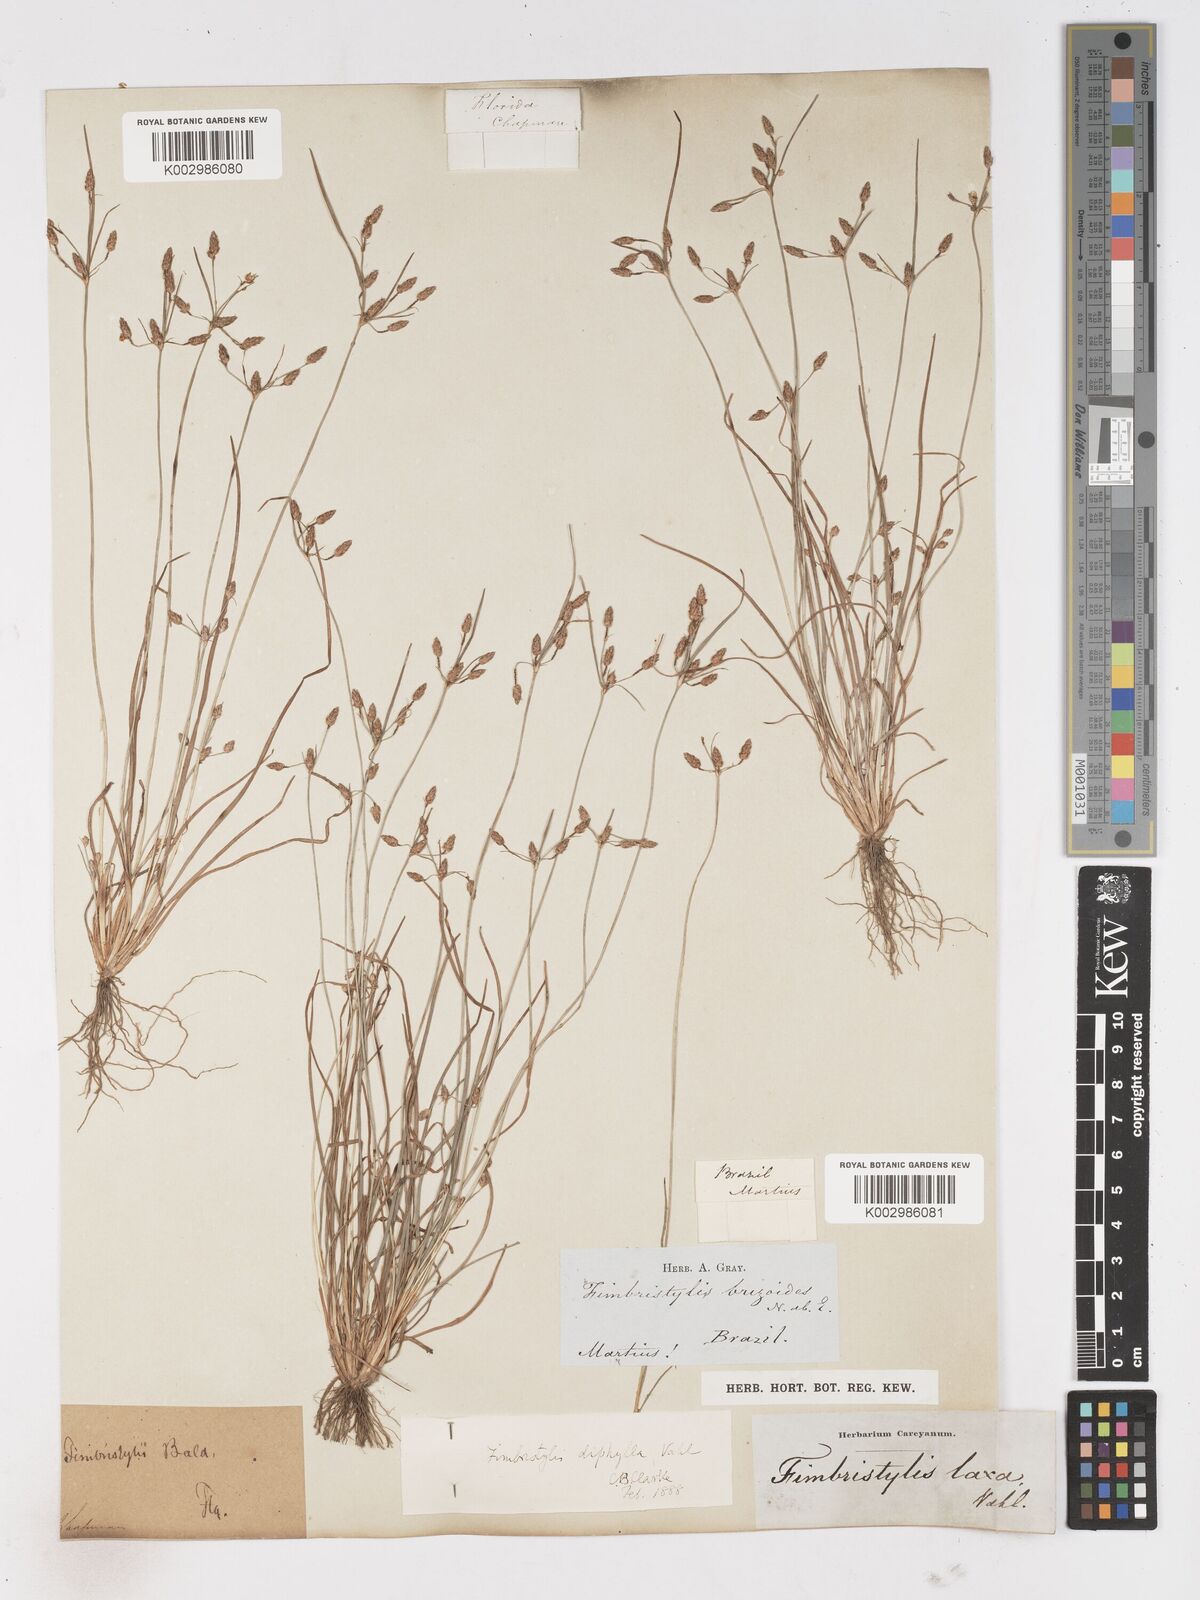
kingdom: Plantae
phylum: Tracheophyta
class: Liliopsida
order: Poales
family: Cyperaceae
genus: Fimbristylis
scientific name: Fimbristylis dichotoma
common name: Forked fimbry
